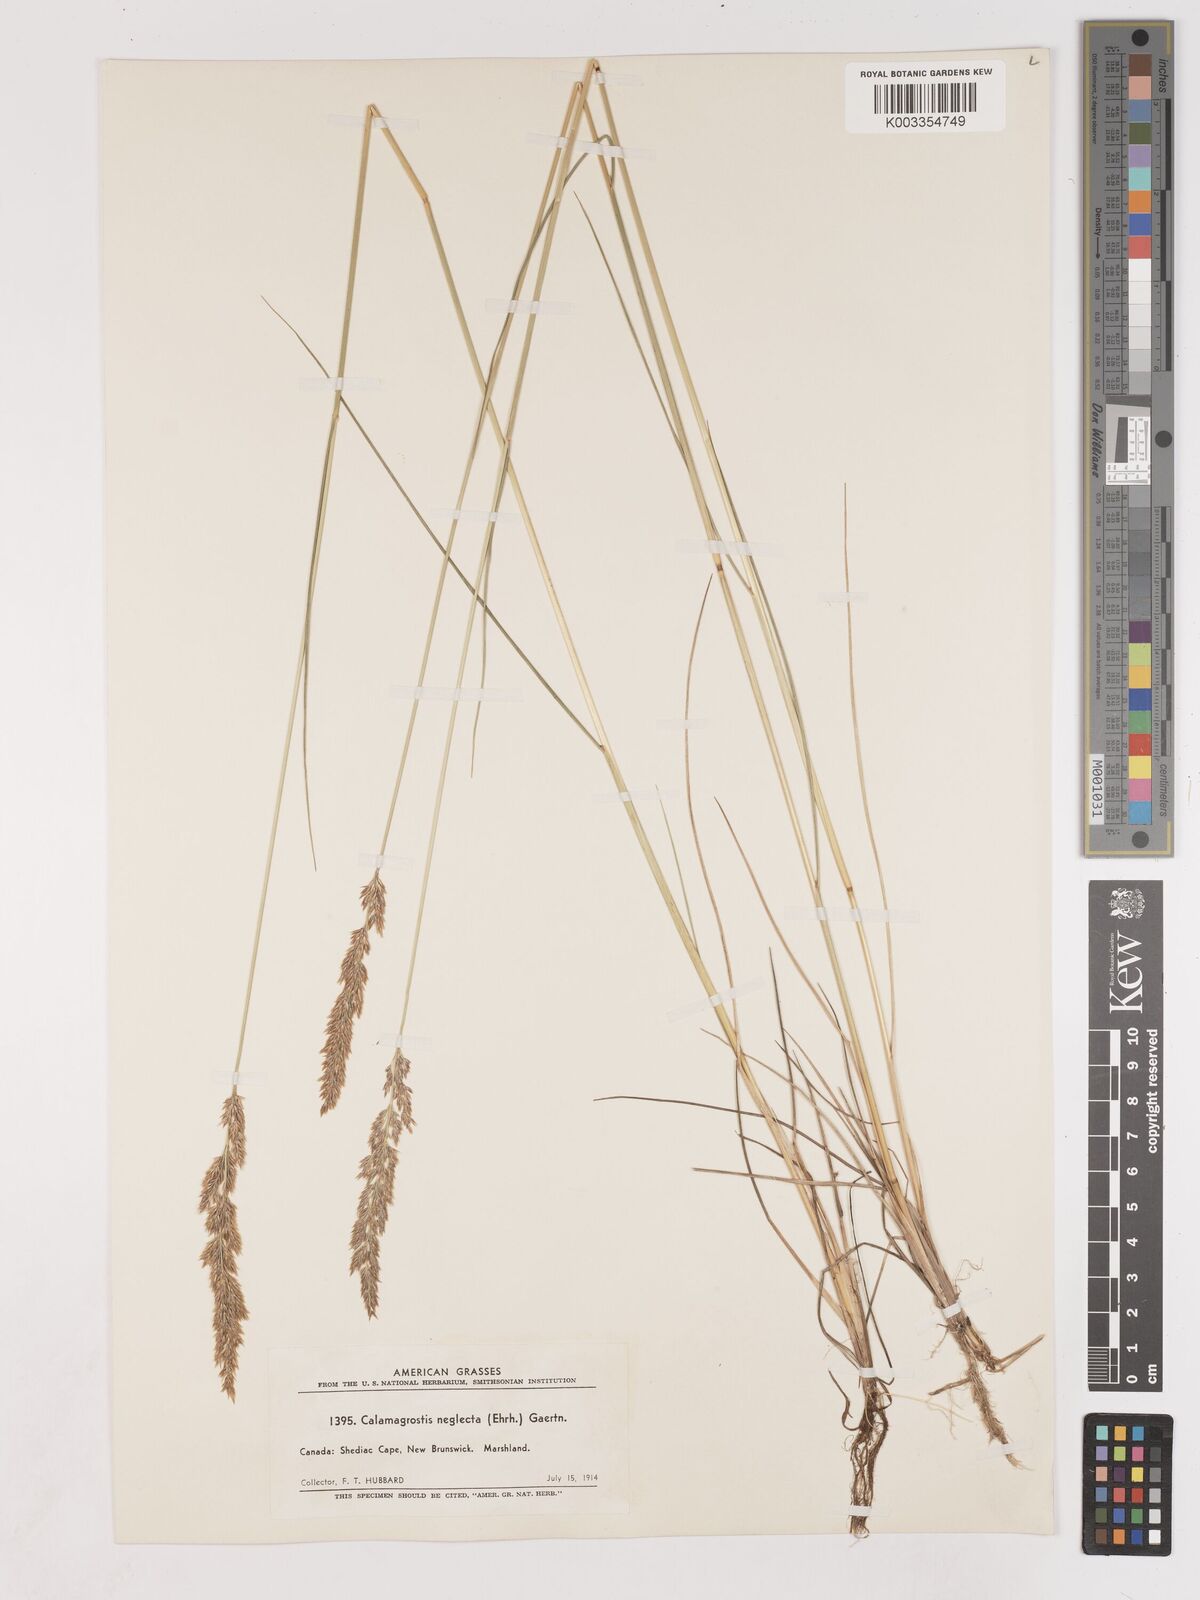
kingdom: Plantae
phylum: Tracheophyta
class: Liliopsida
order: Poales
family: Poaceae
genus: Cinnagrostis
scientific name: Cinnagrostis recta
